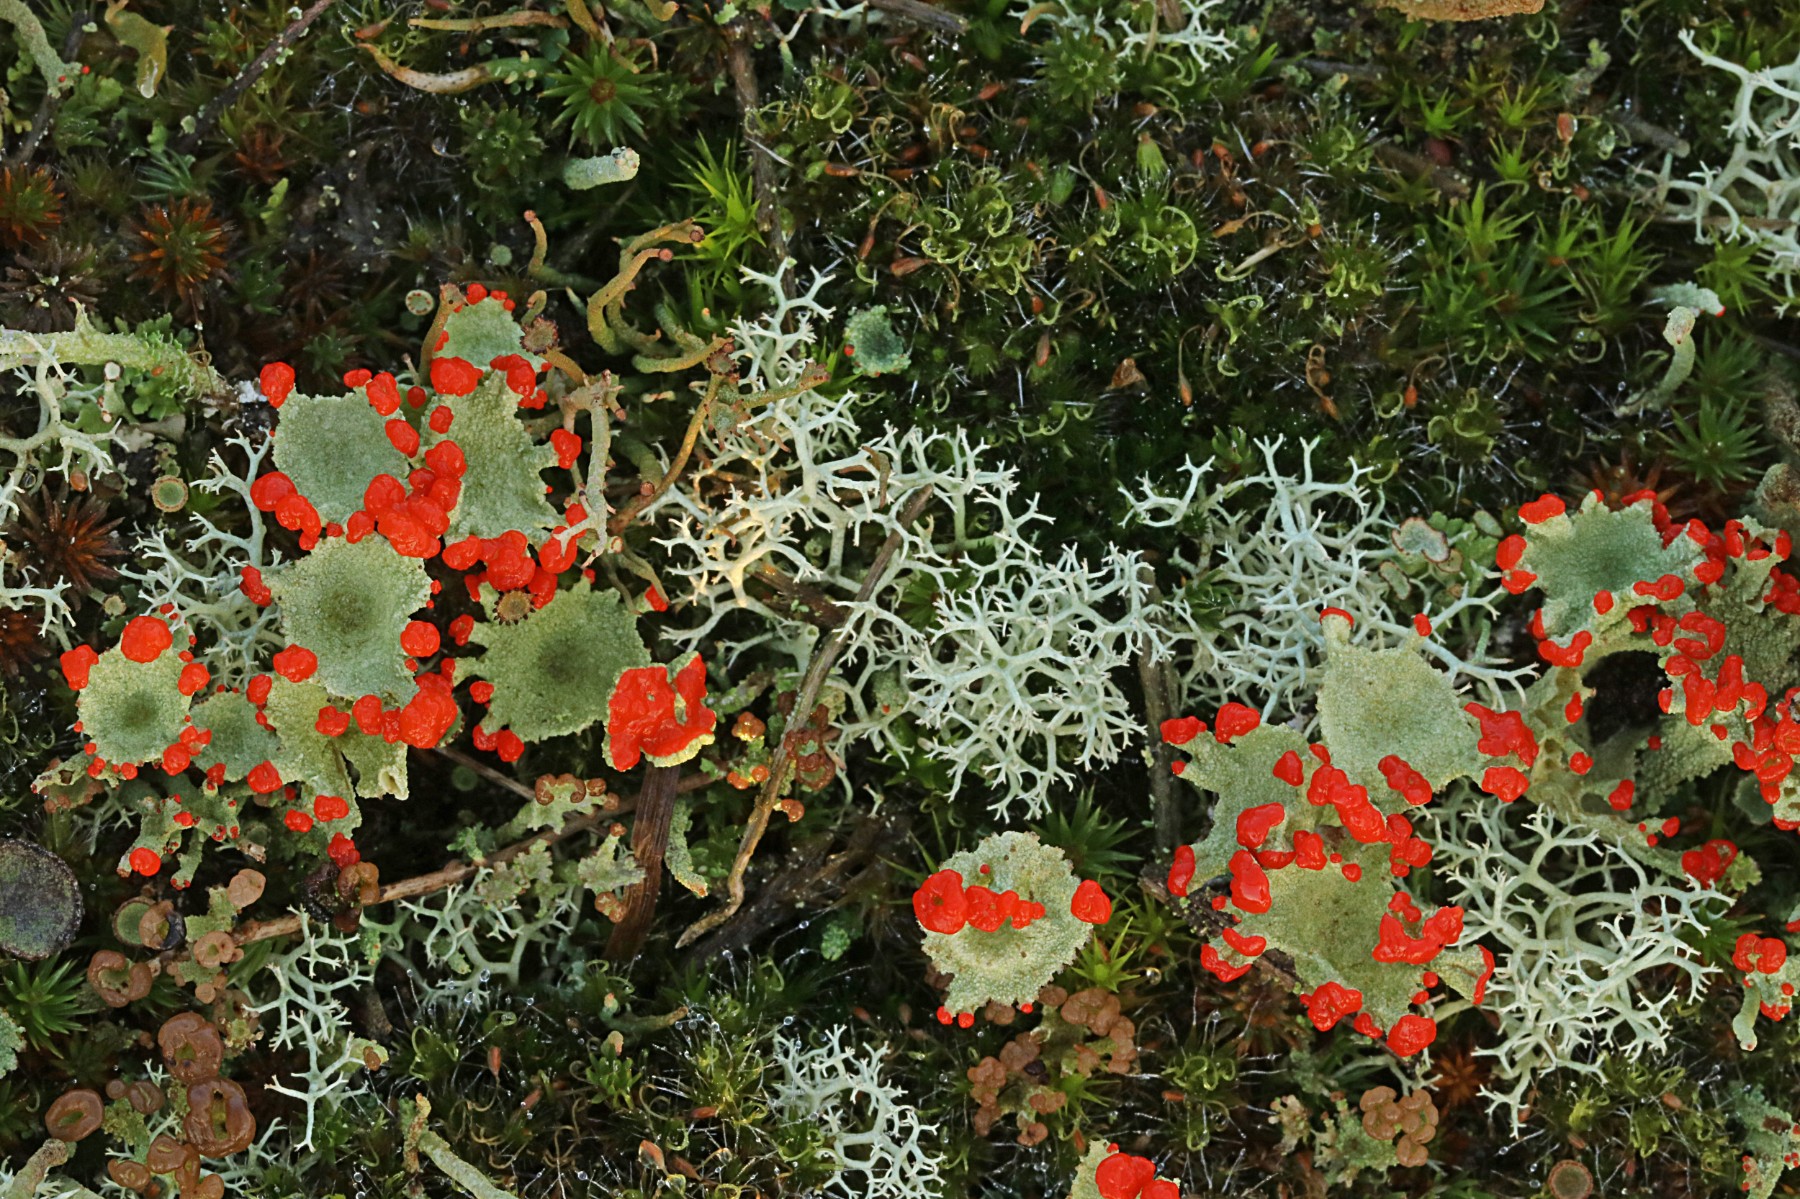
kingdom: Fungi
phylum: Ascomycota
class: Lecanoromycetes
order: Lecanorales
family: Cladoniaceae
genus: Cladonia
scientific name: Cladonia diversa
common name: rød bægerlav
